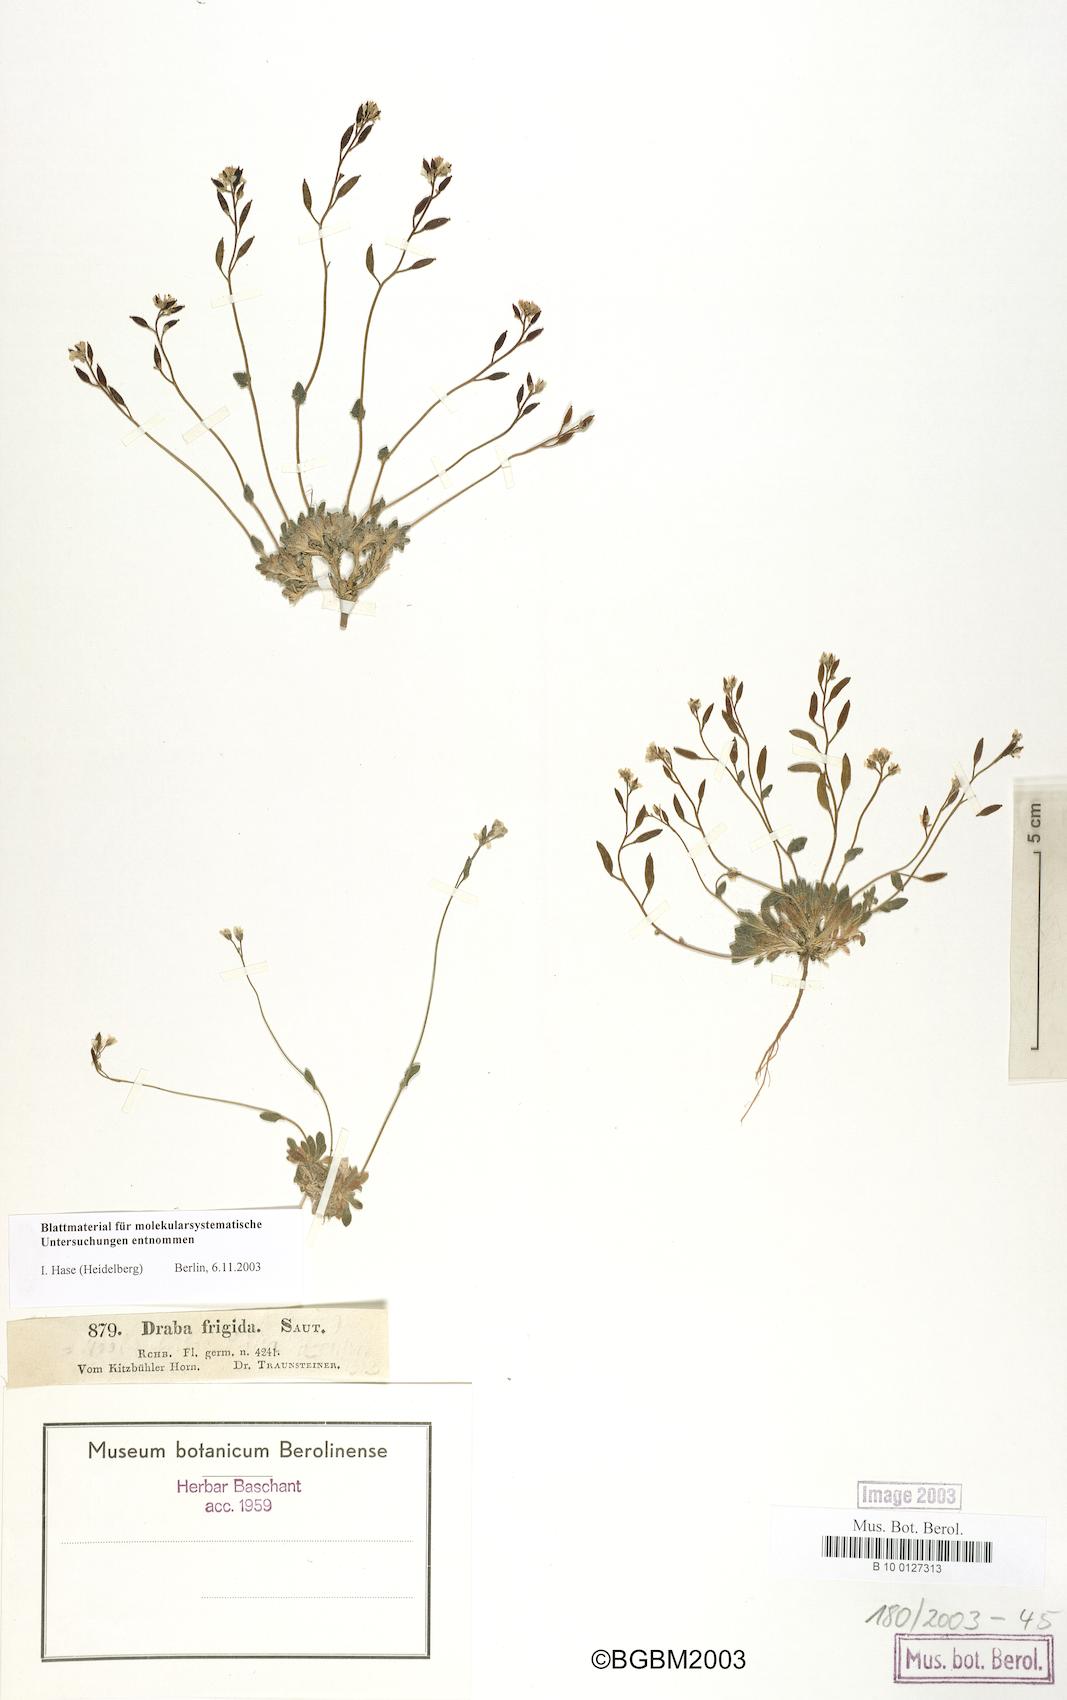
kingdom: Plantae
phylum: Tracheophyta
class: Magnoliopsida
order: Brassicales
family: Brassicaceae
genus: Draba
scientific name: Draba dubia
